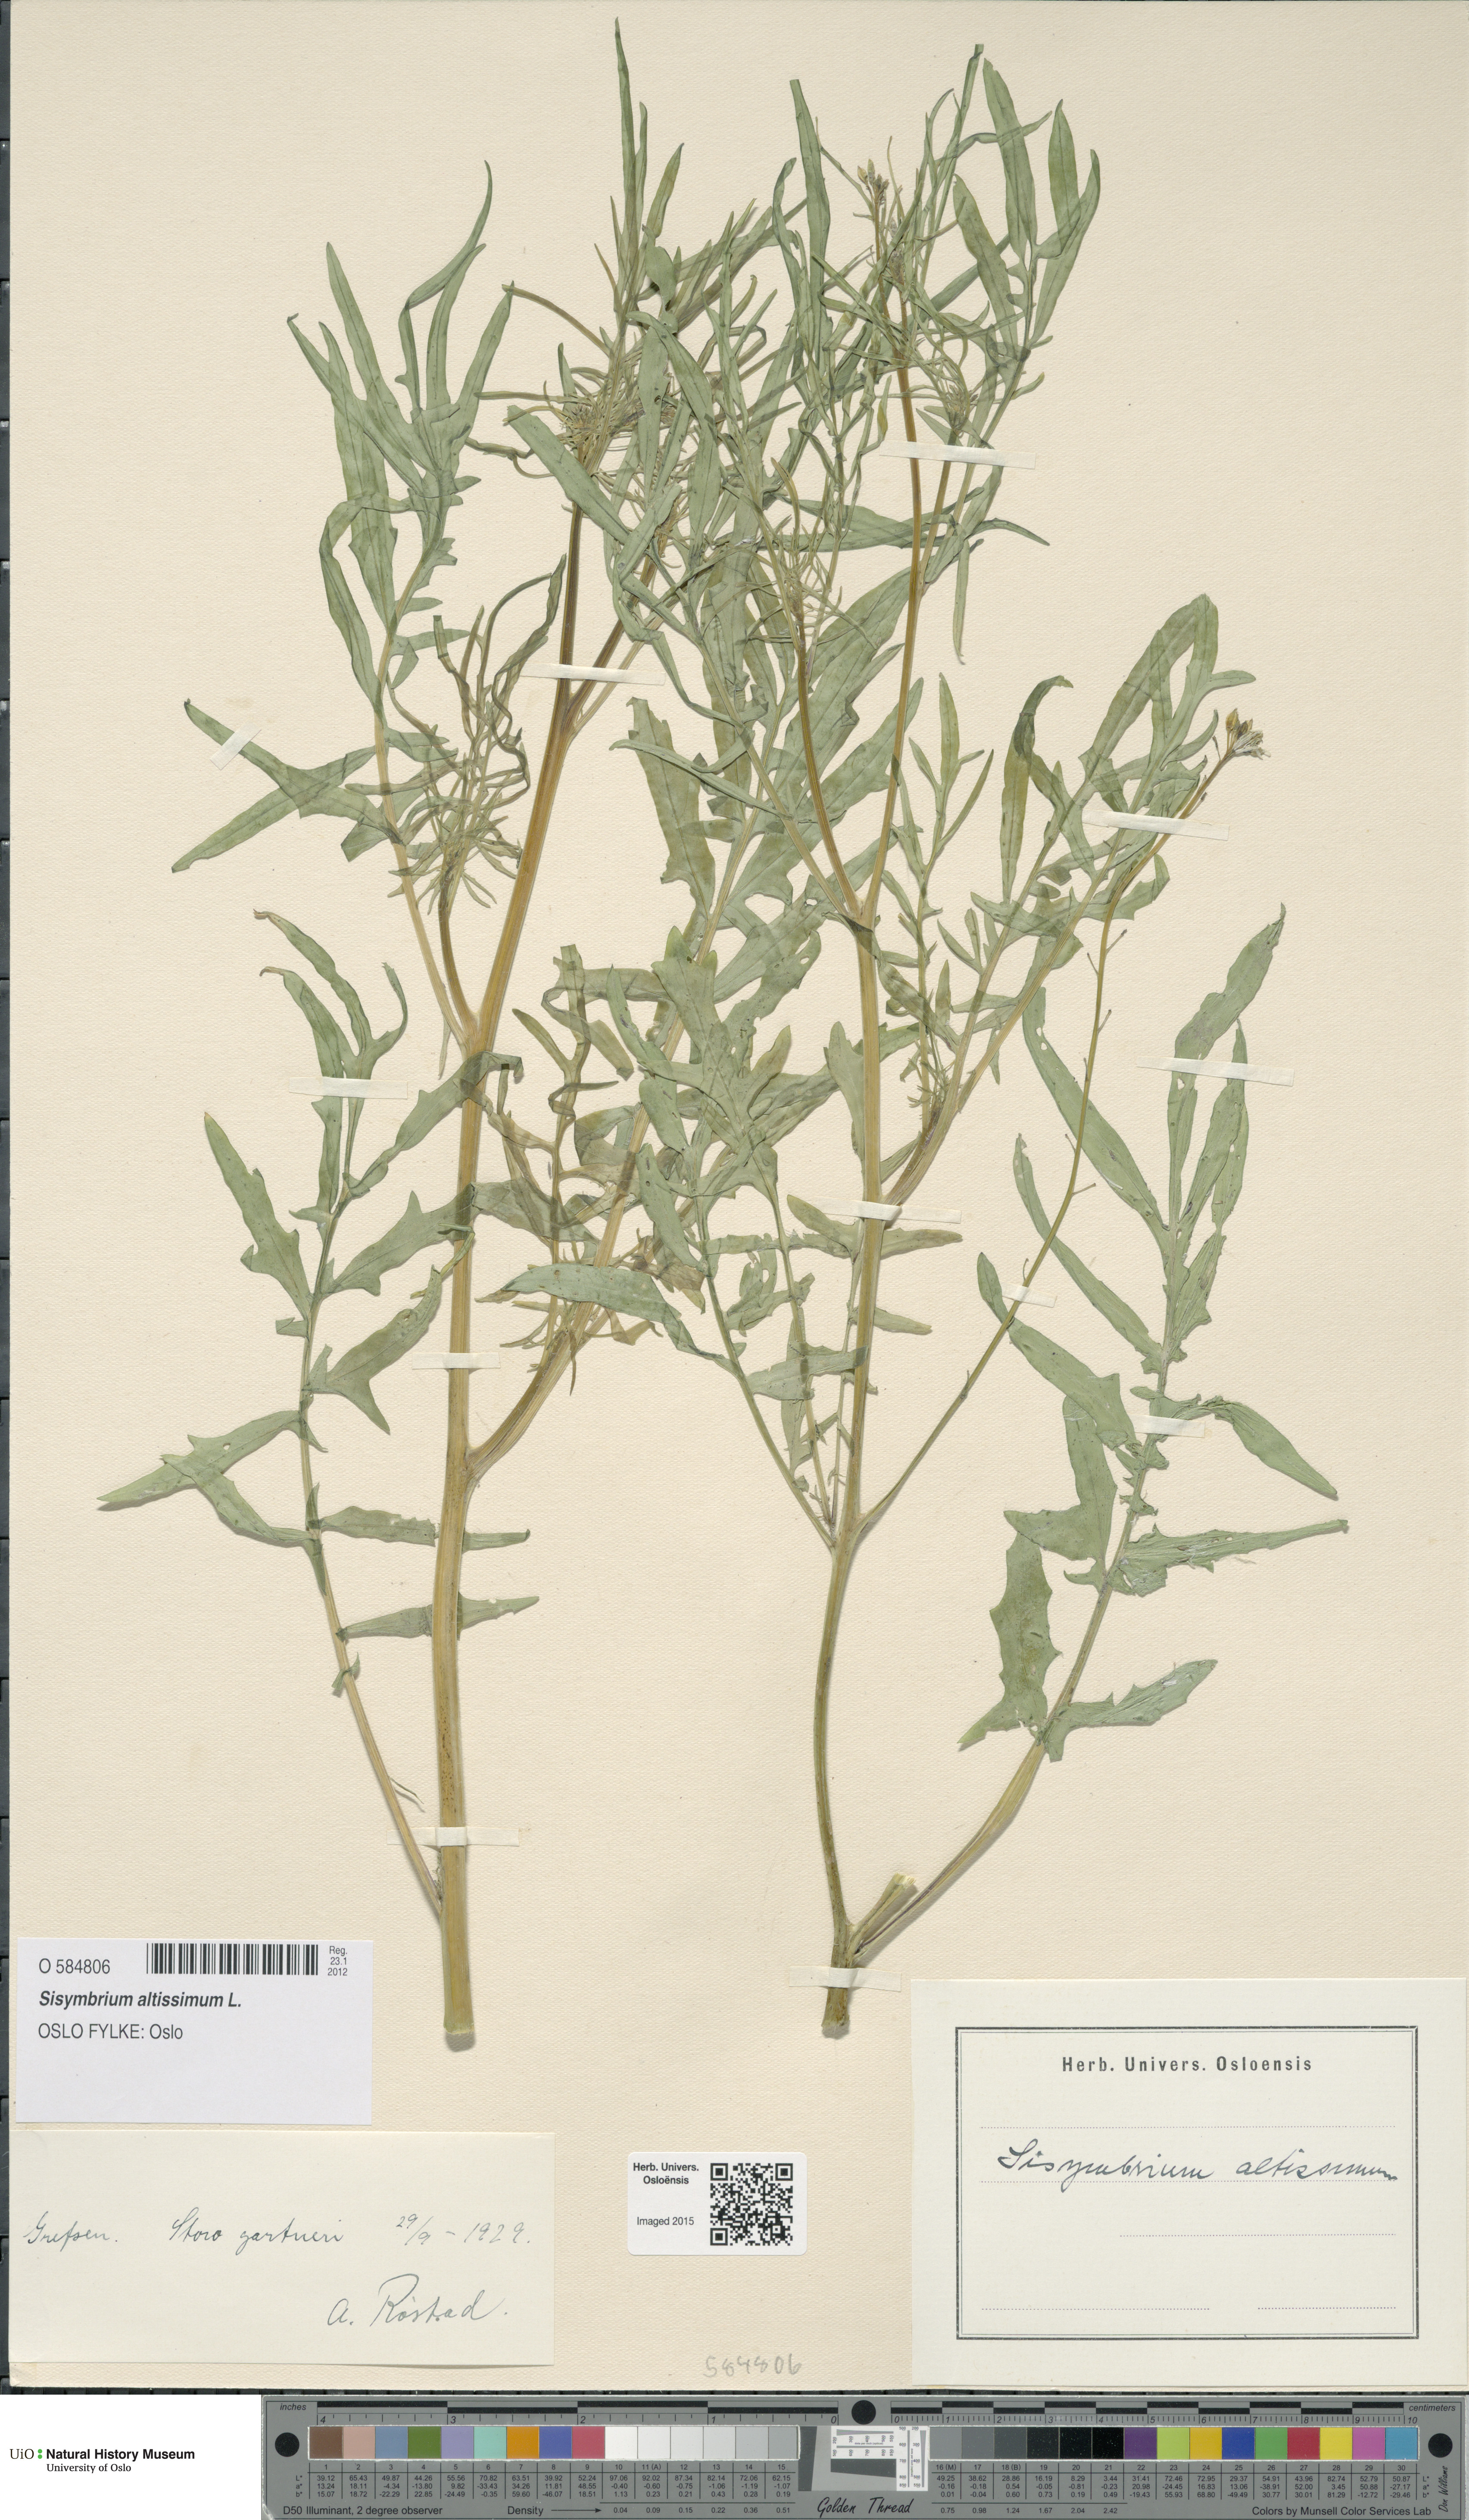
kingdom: Plantae
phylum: Tracheophyta
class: Magnoliopsida
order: Brassicales
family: Brassicaceae
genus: Sisymbrium
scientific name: Sisymbrium altissimum
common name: Tall rocket
